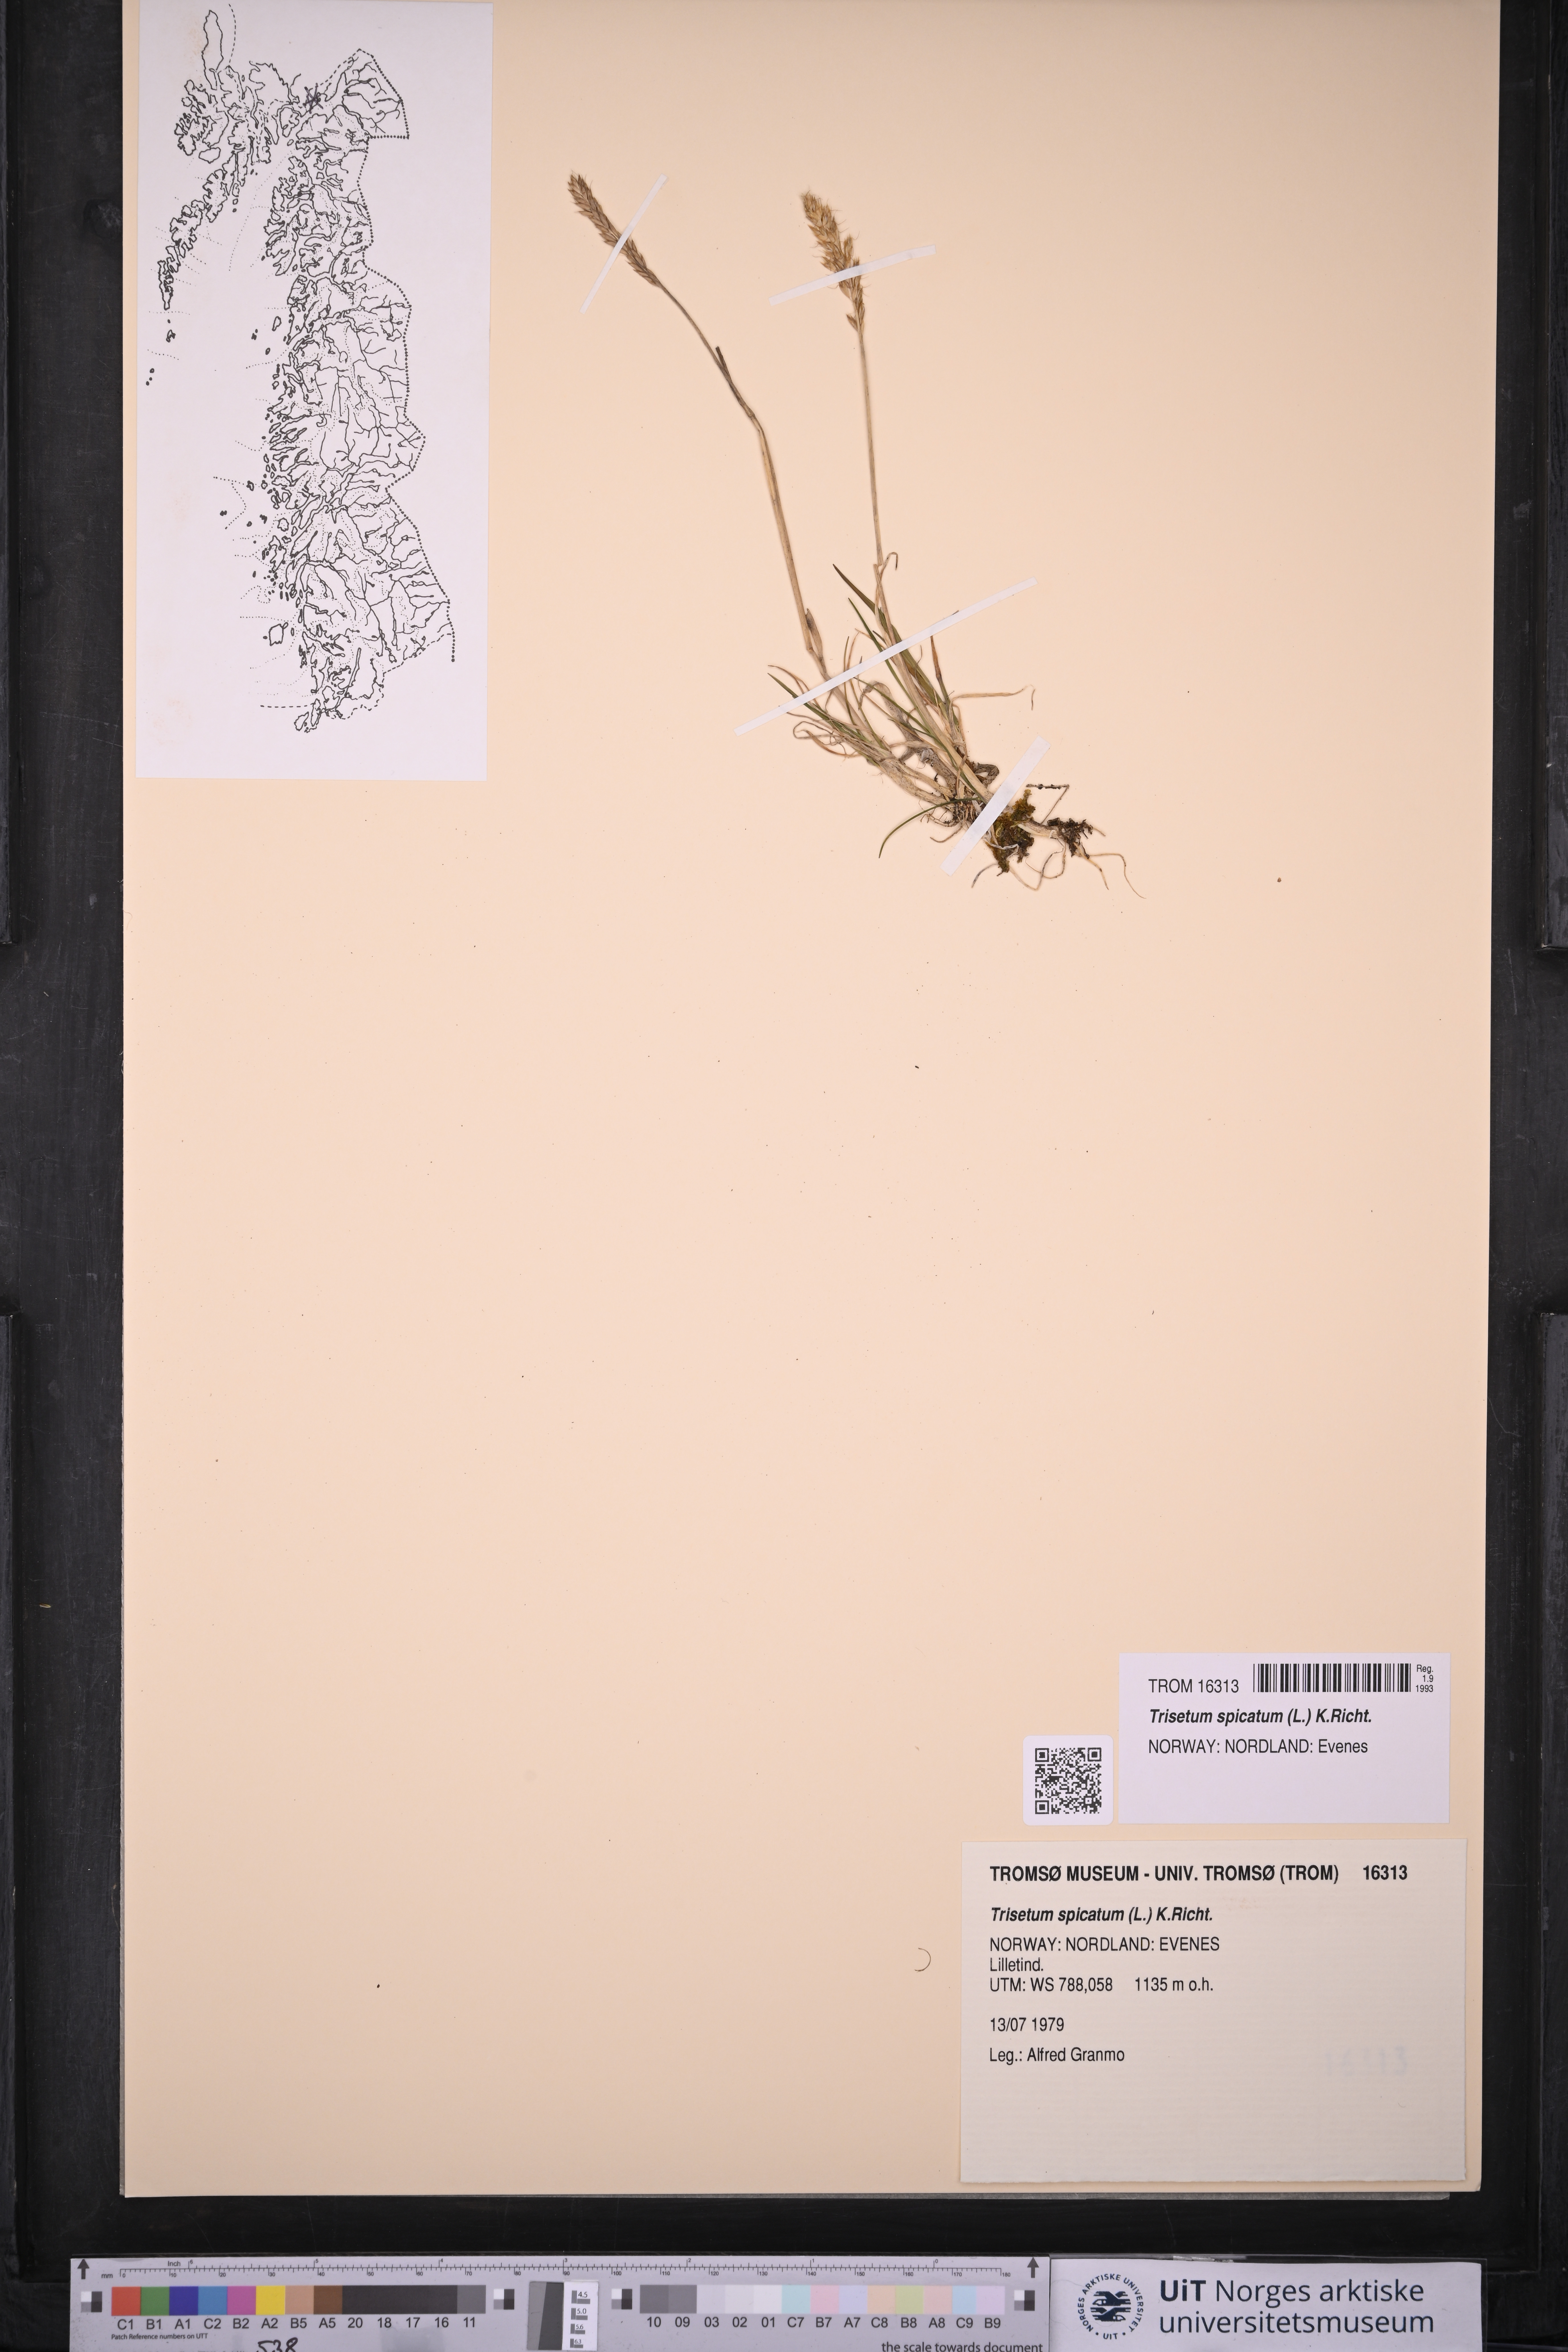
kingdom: Plantae
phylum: Tracheophyta
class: Liliopsida
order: Poales
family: Poaceae
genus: Koeleria
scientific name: Koeleria spicata
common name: Mountain trisetum
